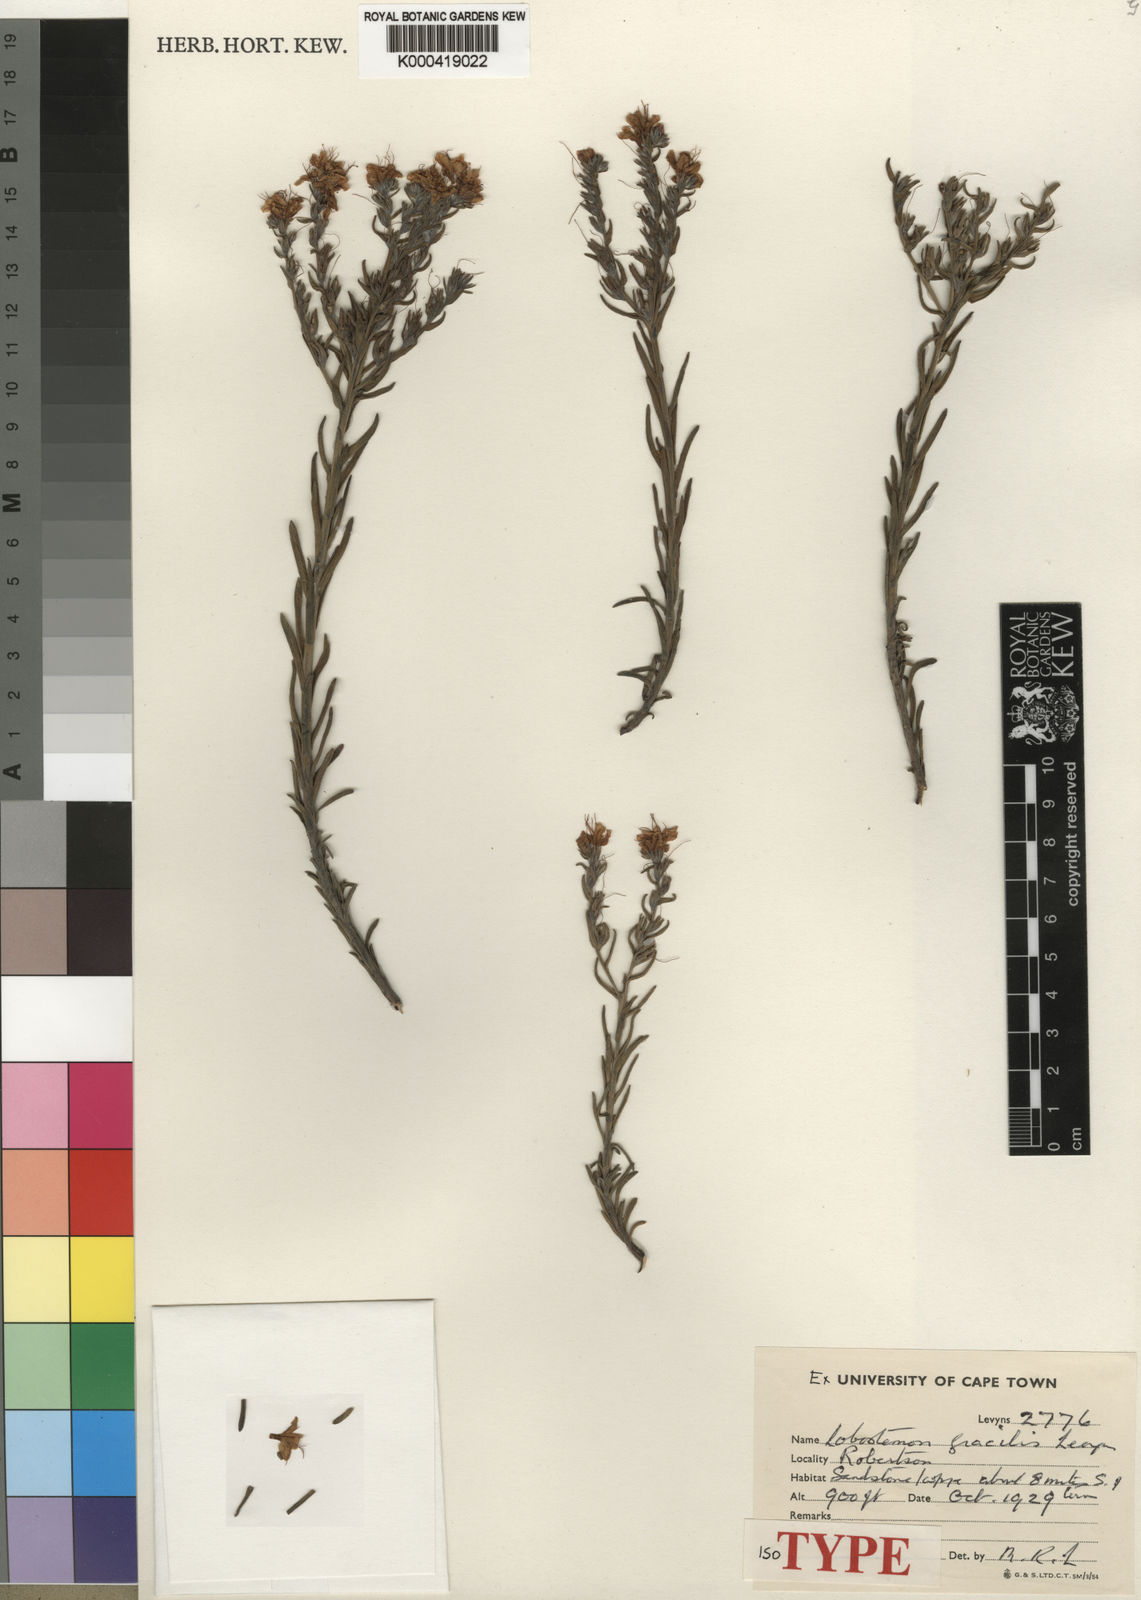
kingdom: Plantae
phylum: Tracheophyta
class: Magnoliopsida
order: Boraginales
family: Boraginaceae
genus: Lobostemon
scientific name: Lobostemon gracilis
